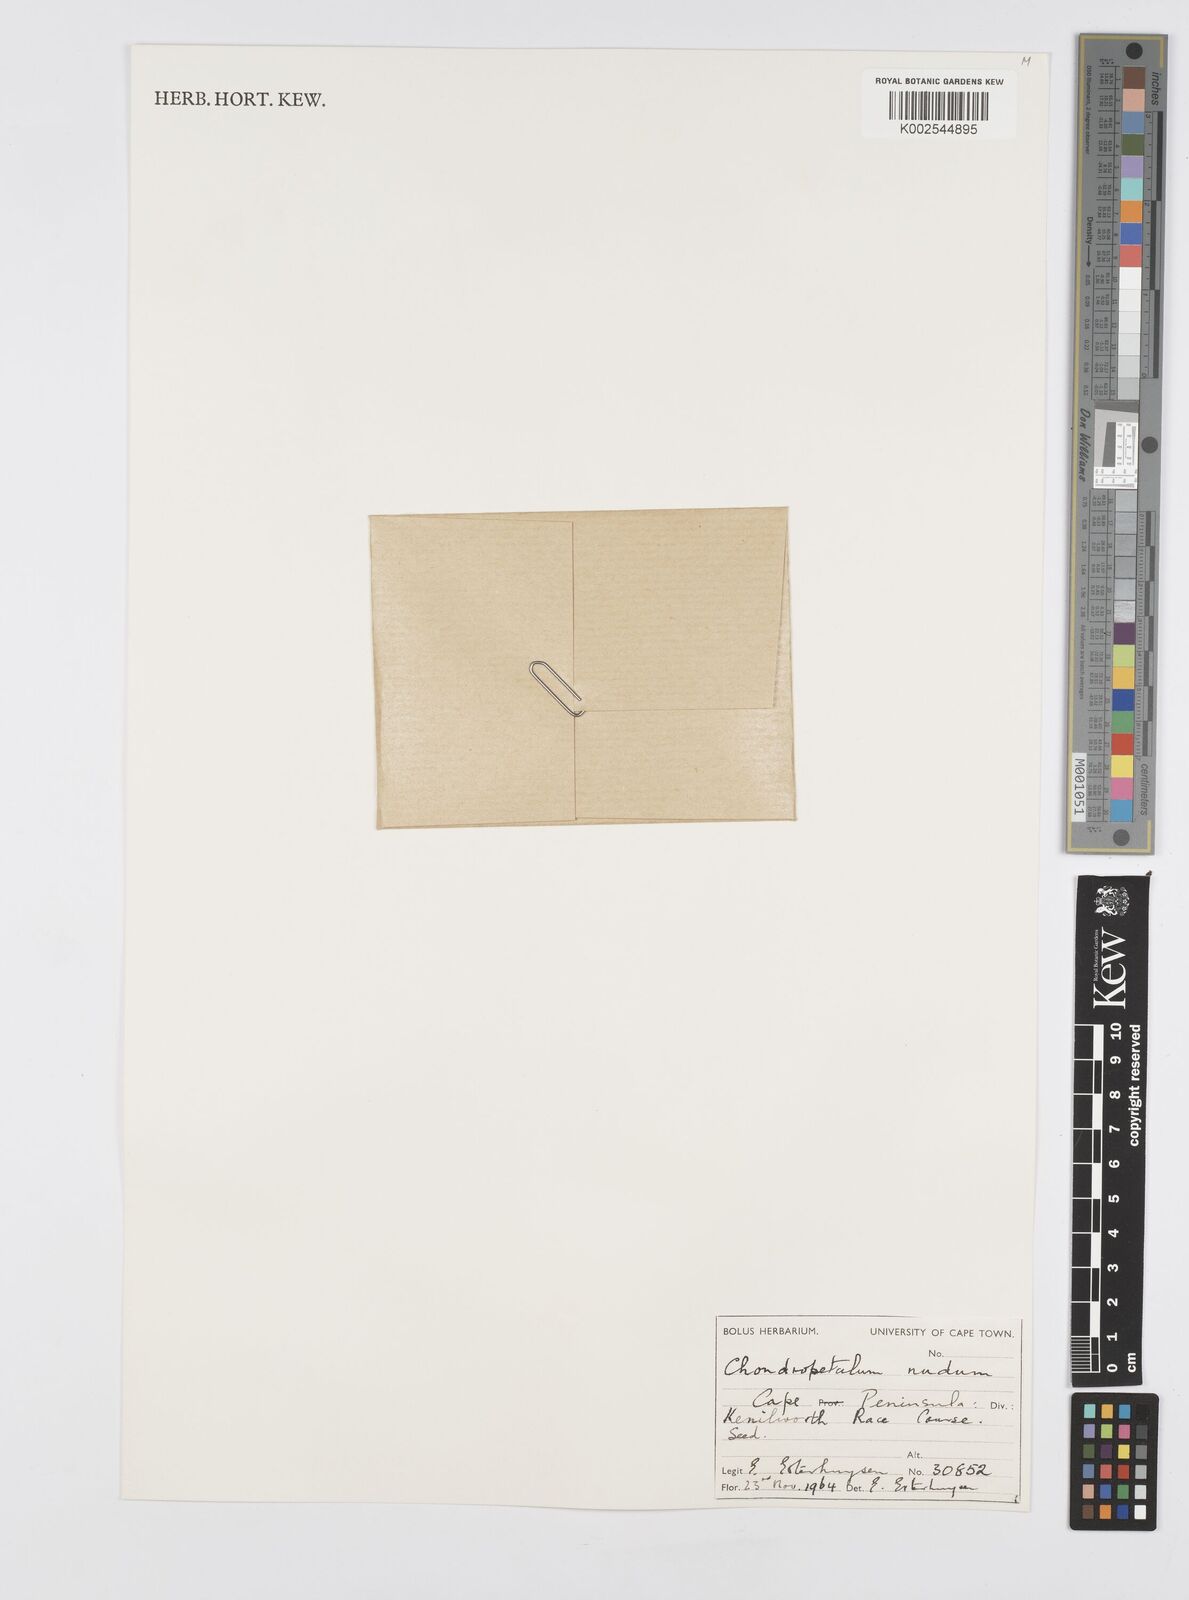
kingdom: Plantae
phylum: Tracheophyta
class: Liliopsida
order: Poales
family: Restionaceae
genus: Elegia
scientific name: Elegia nuda
